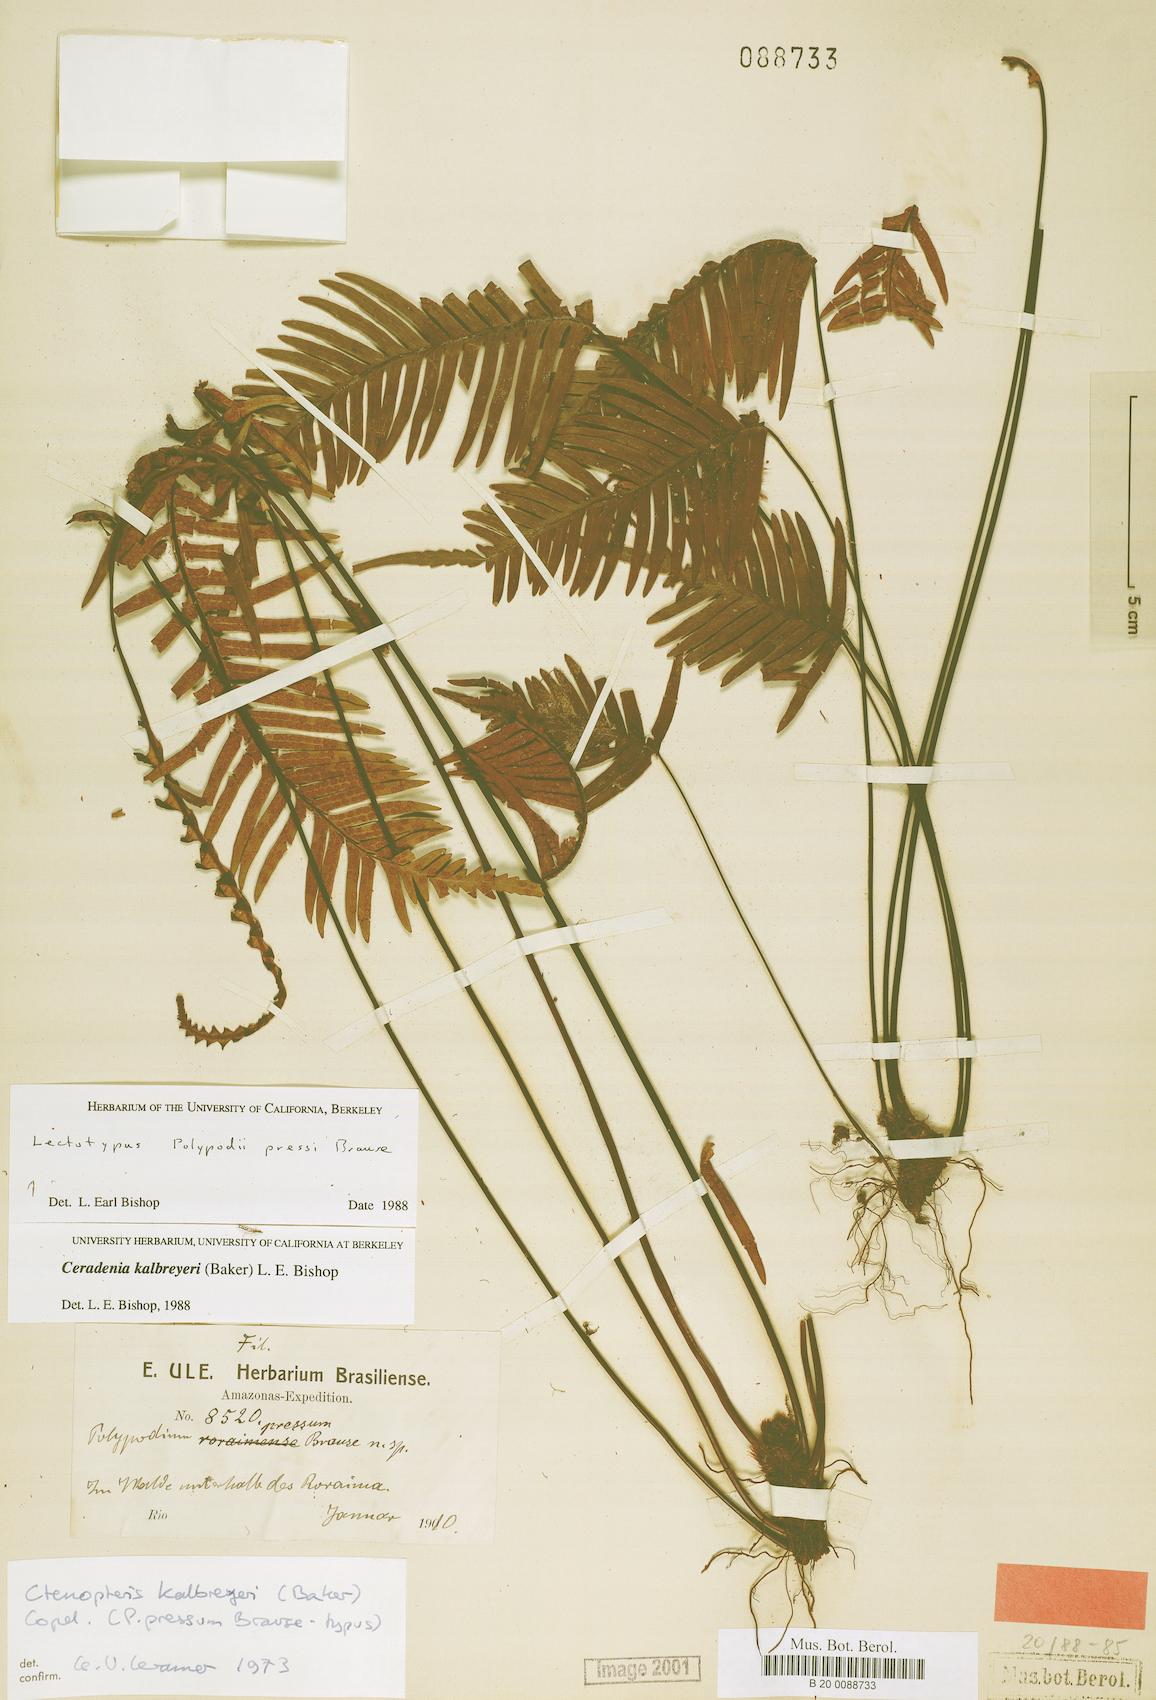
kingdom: Plantae
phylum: Tracheophyta
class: Polypodiopsida
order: Polypodiales
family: Polypodiaceae
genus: Ceradenia
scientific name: Ceradenia kalbreyeri
